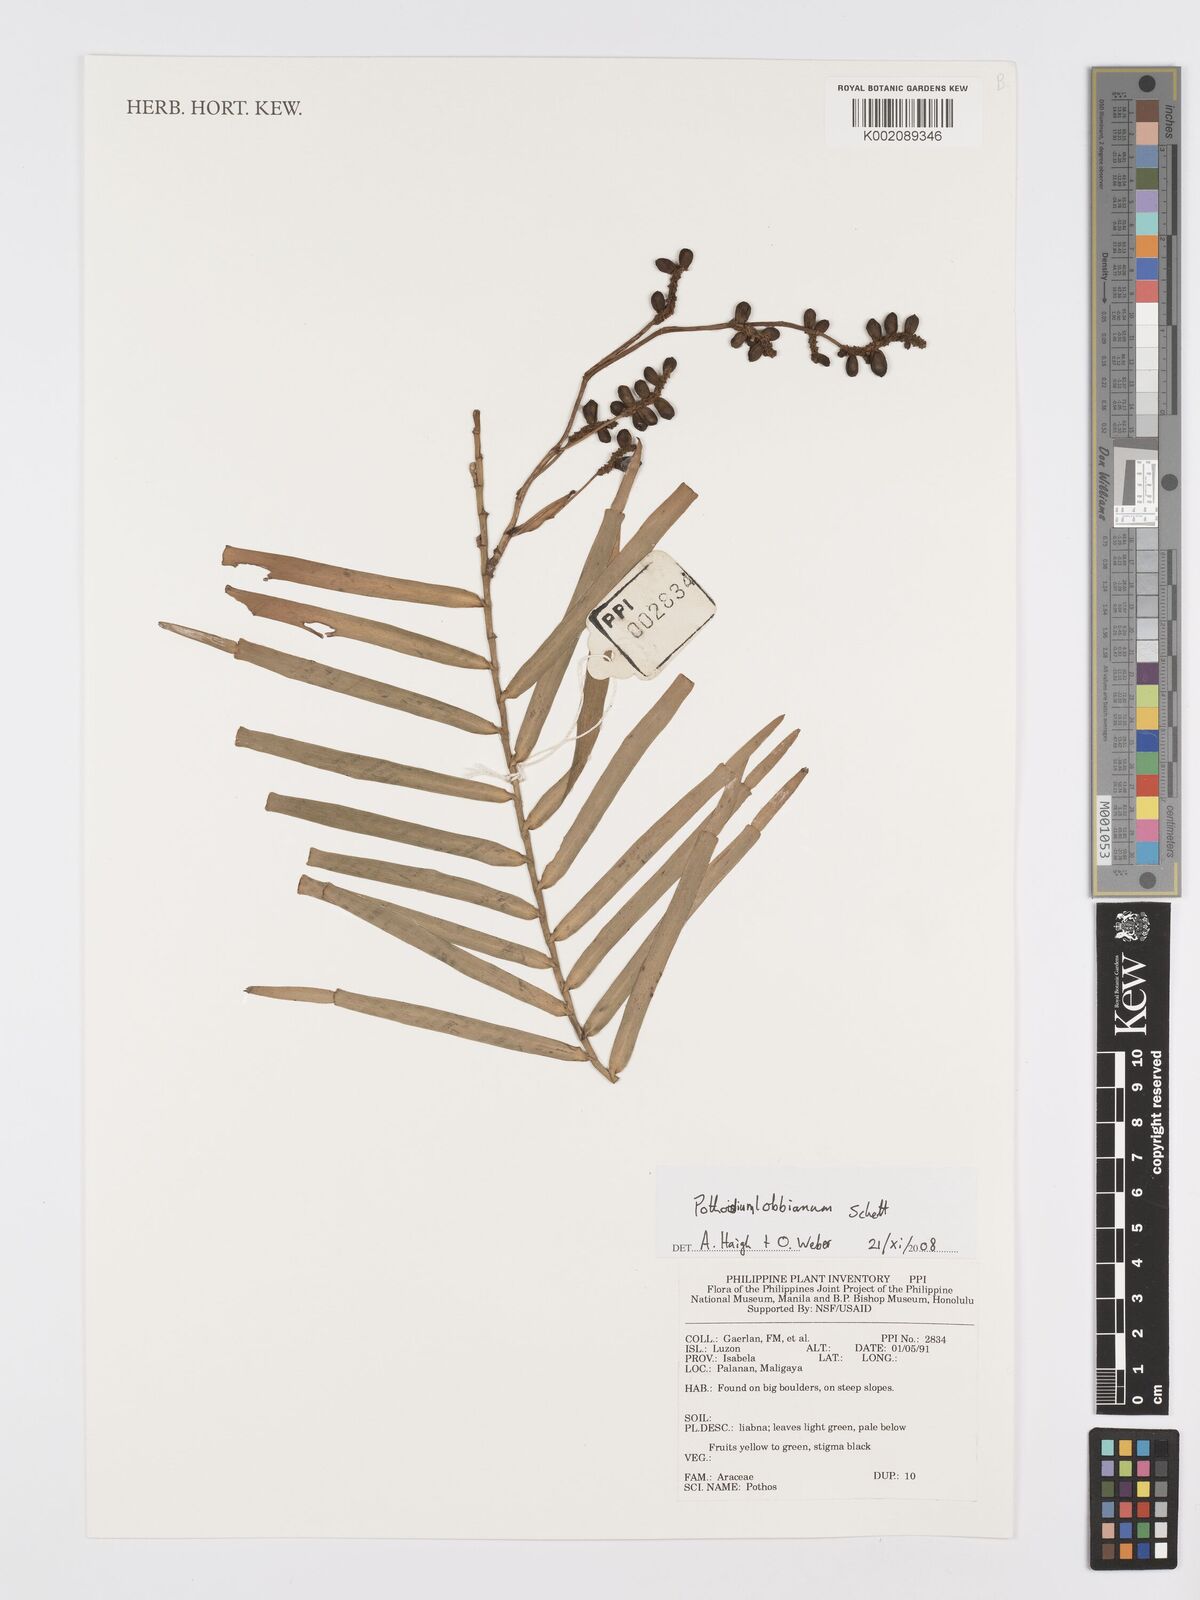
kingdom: Plantae
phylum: Tracheophyta
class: Liliopsida
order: Alismatales
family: Araceae
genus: Pothoidium
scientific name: Pothoidium lobbianum
